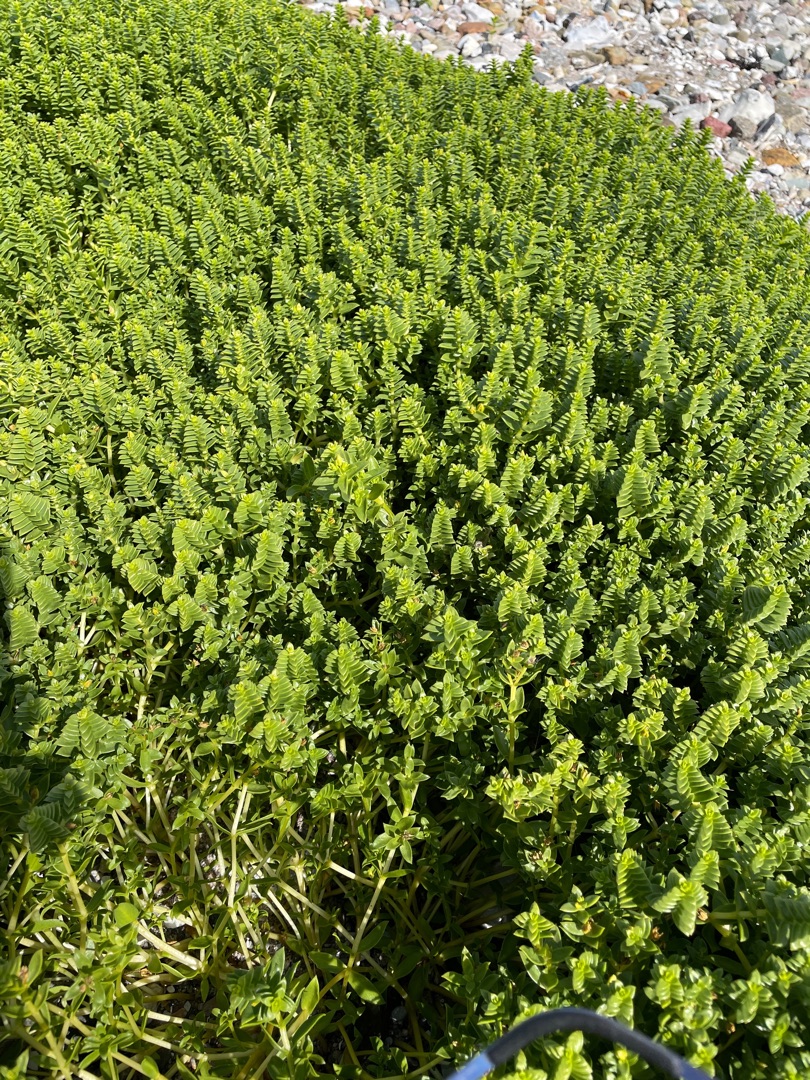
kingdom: Plantae
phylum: Tracheophyta
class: Magnoliopsida
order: Caryophyllales
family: Caryophyllaceae
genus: Honckenya
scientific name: Honckenya peploides
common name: Strandarve
